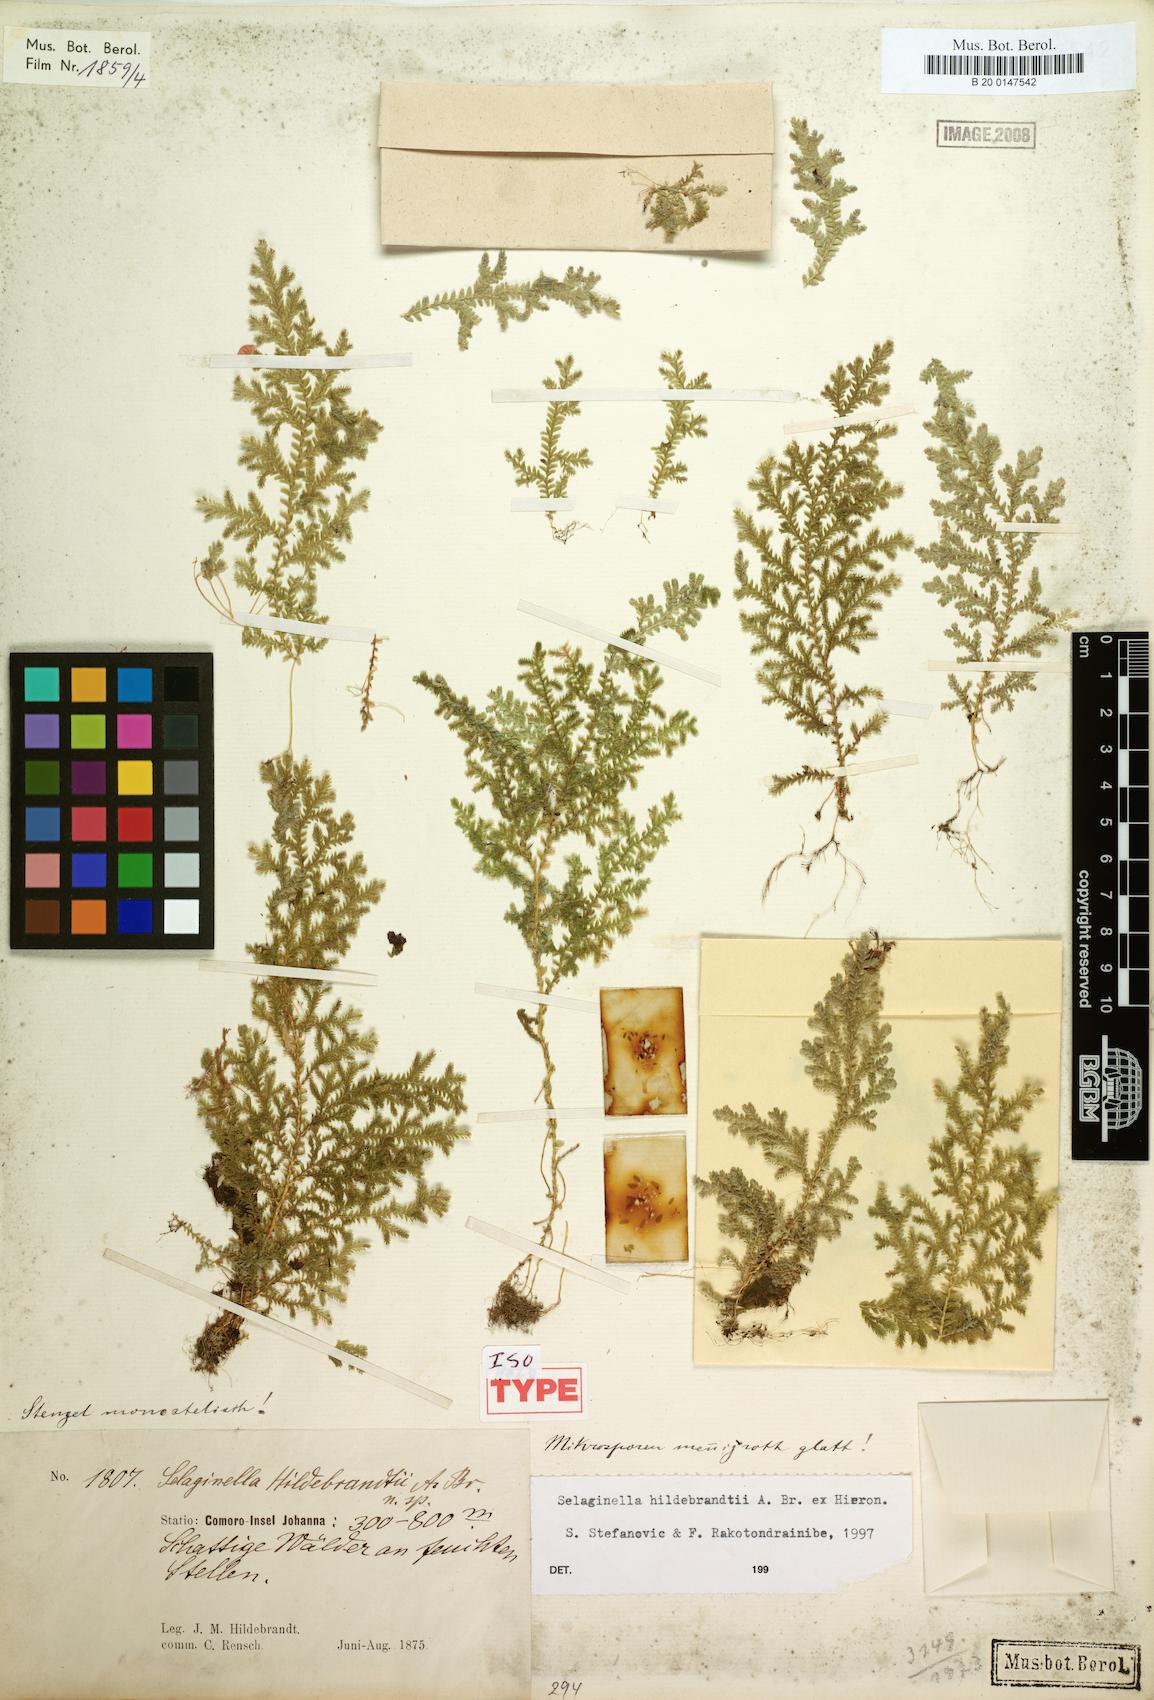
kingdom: Plantae
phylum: Tracheophyta
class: Lycopodiopsida
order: Selaginellales
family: Selaginellaceae
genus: Selaginella
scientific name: Selaginella hildebrandtii
